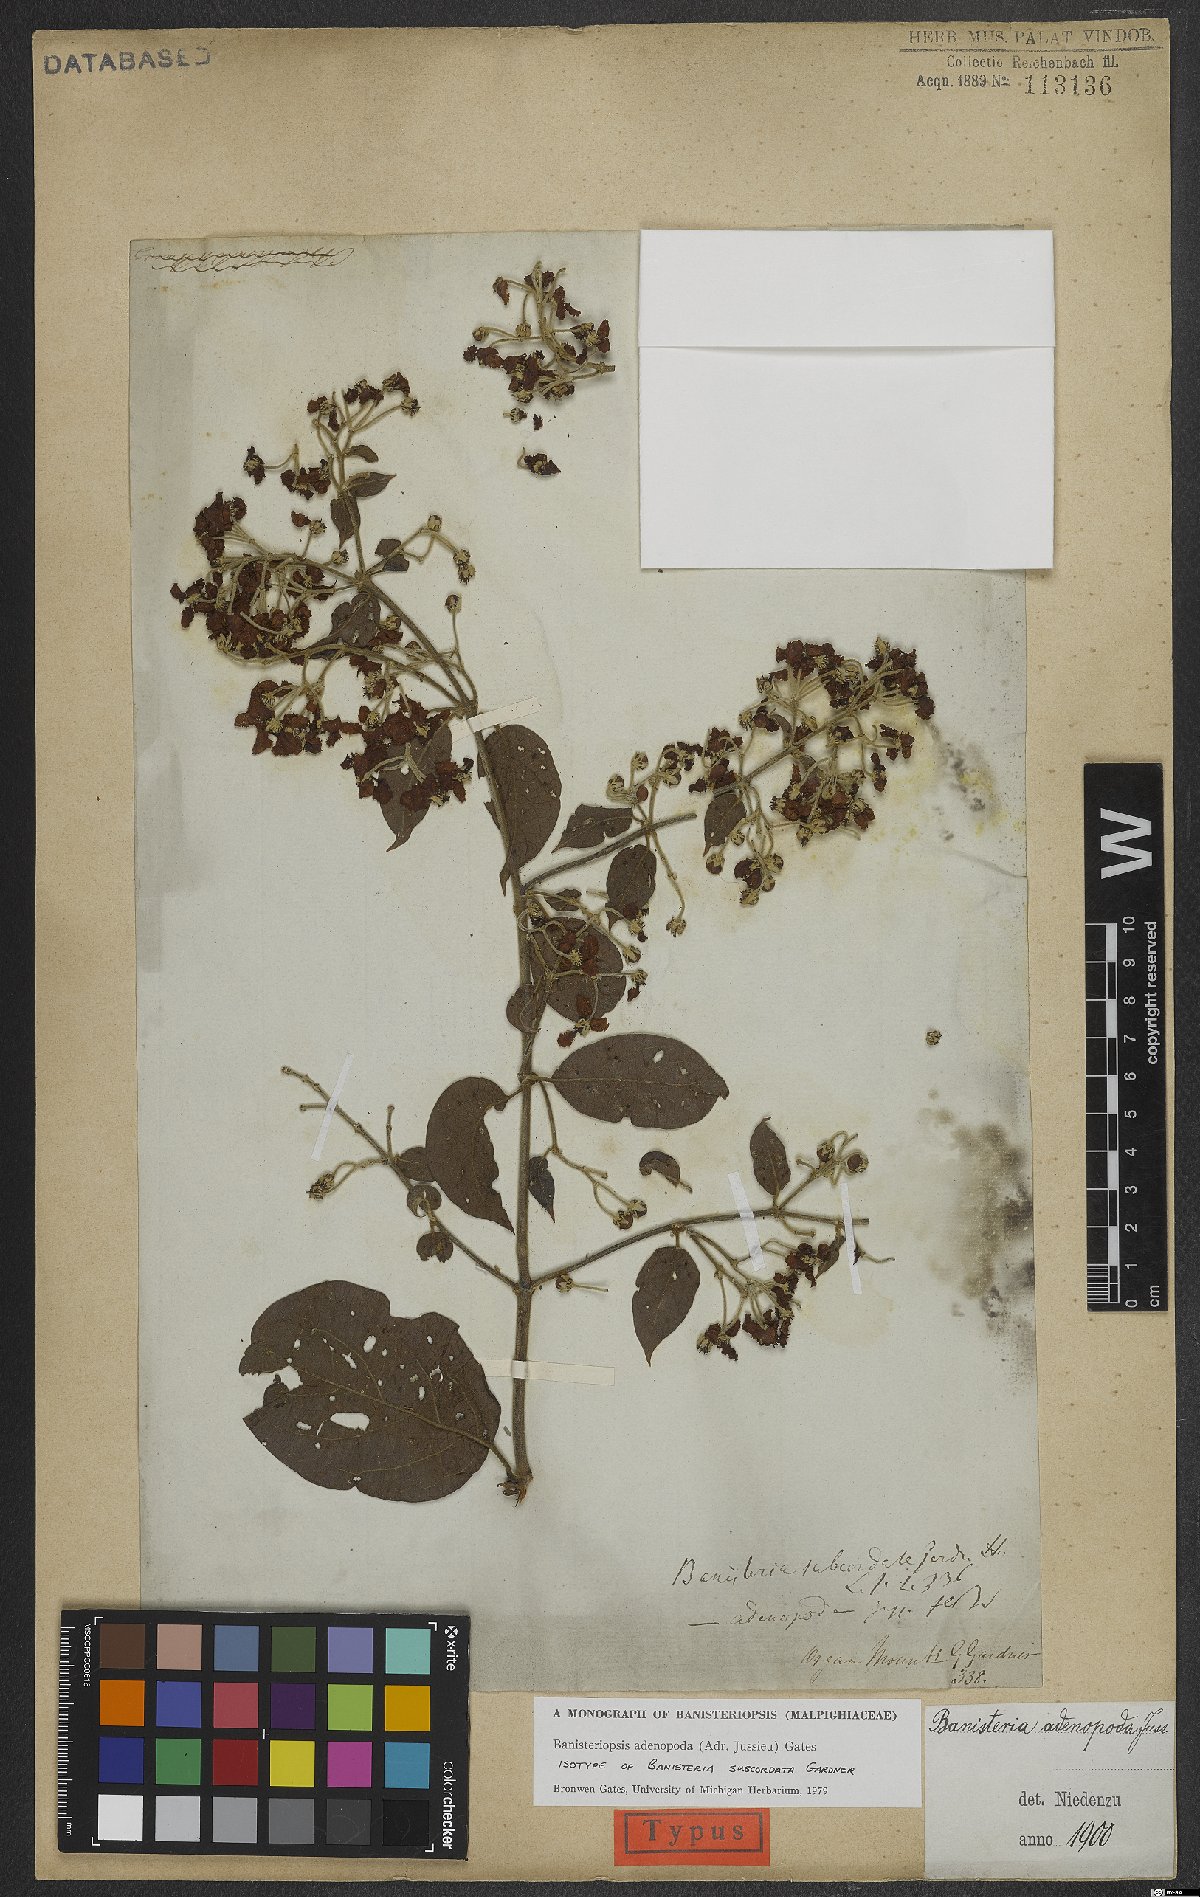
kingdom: Plantae
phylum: Tracheophyta
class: Magnoliopsida
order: Malpighiales
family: Malpighiaceae
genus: Banisteriopsis
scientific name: Banisteriopsis adenopoda
